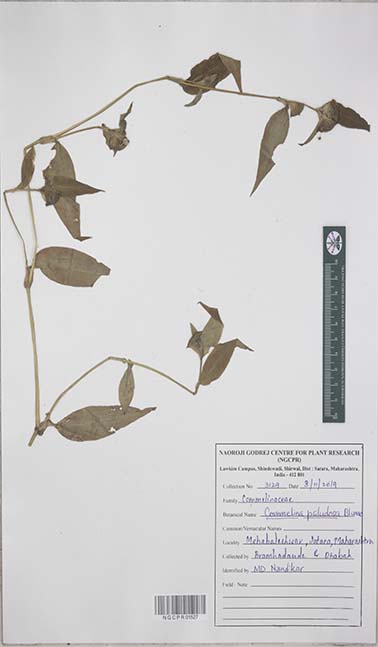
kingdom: Plantae
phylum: Tracheophyta
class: Liliopsida
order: Commelinales
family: Commelinaceae
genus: Commelina
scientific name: Commelina paludosa
